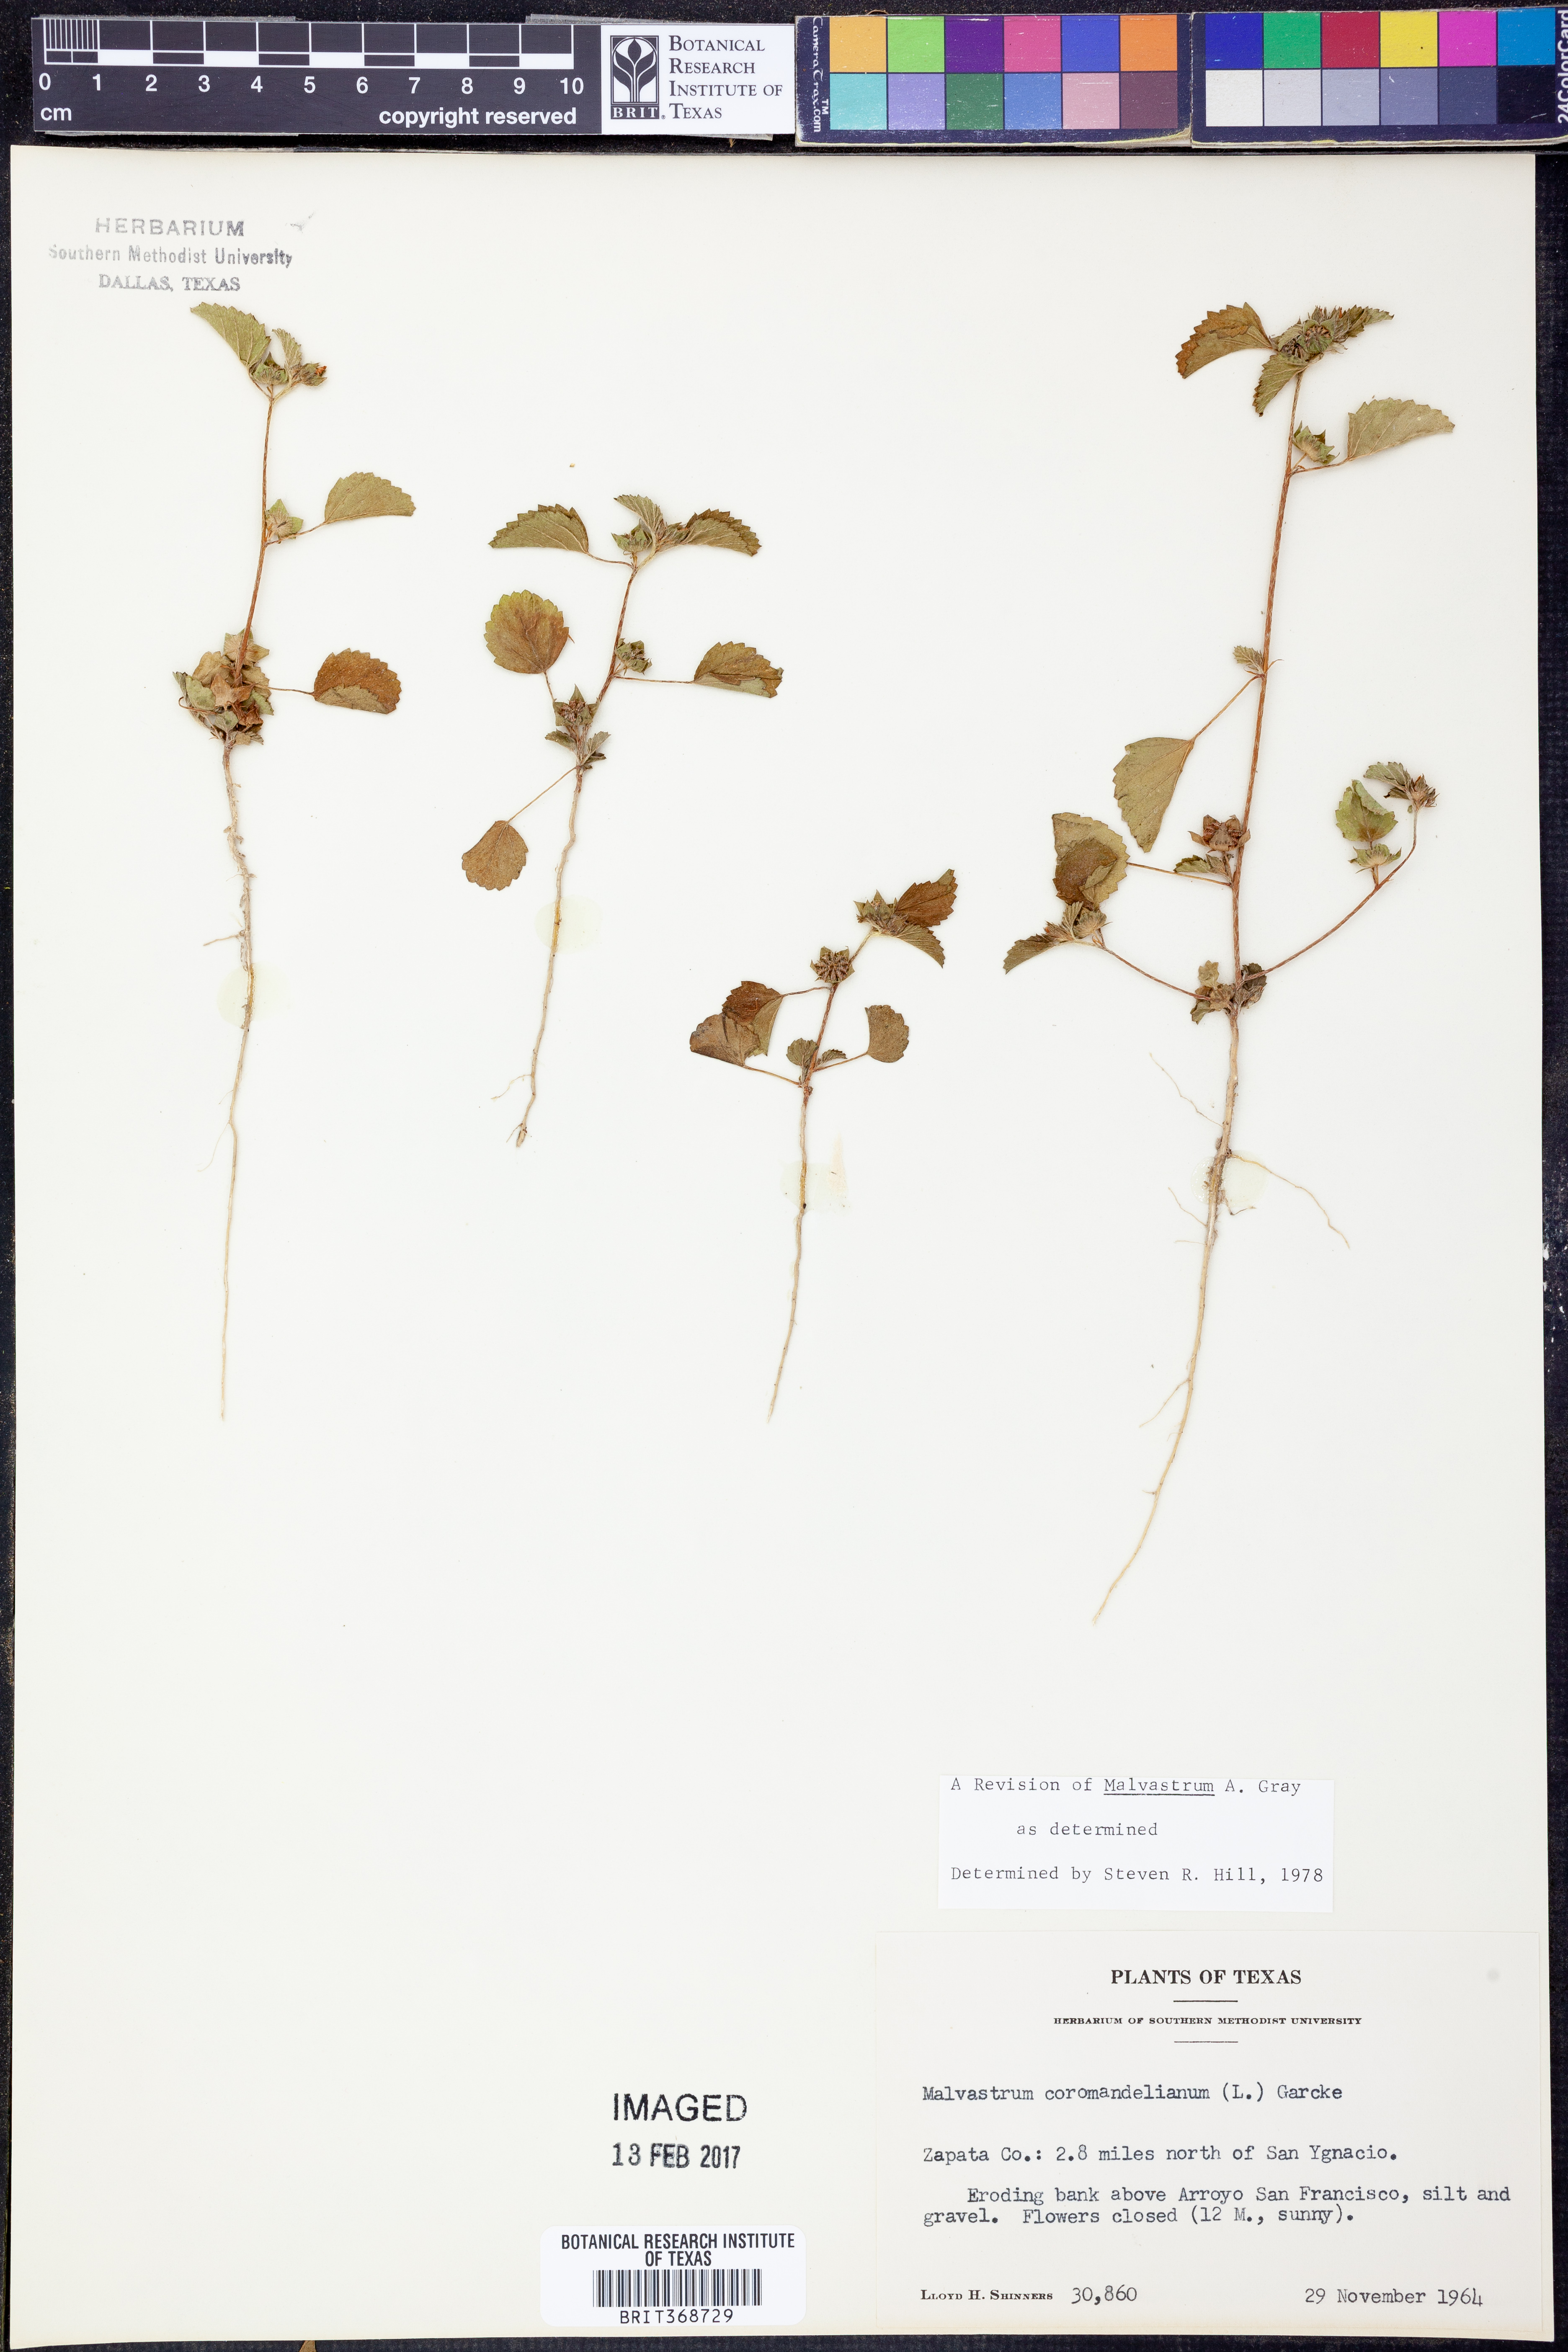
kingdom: Plantae
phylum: Tracheophyta
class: Magnoliopsida
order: Malvales
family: Malvaceae
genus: Malvastrum
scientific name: Malvastrum coromandelianum
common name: Threelobe false mallow
